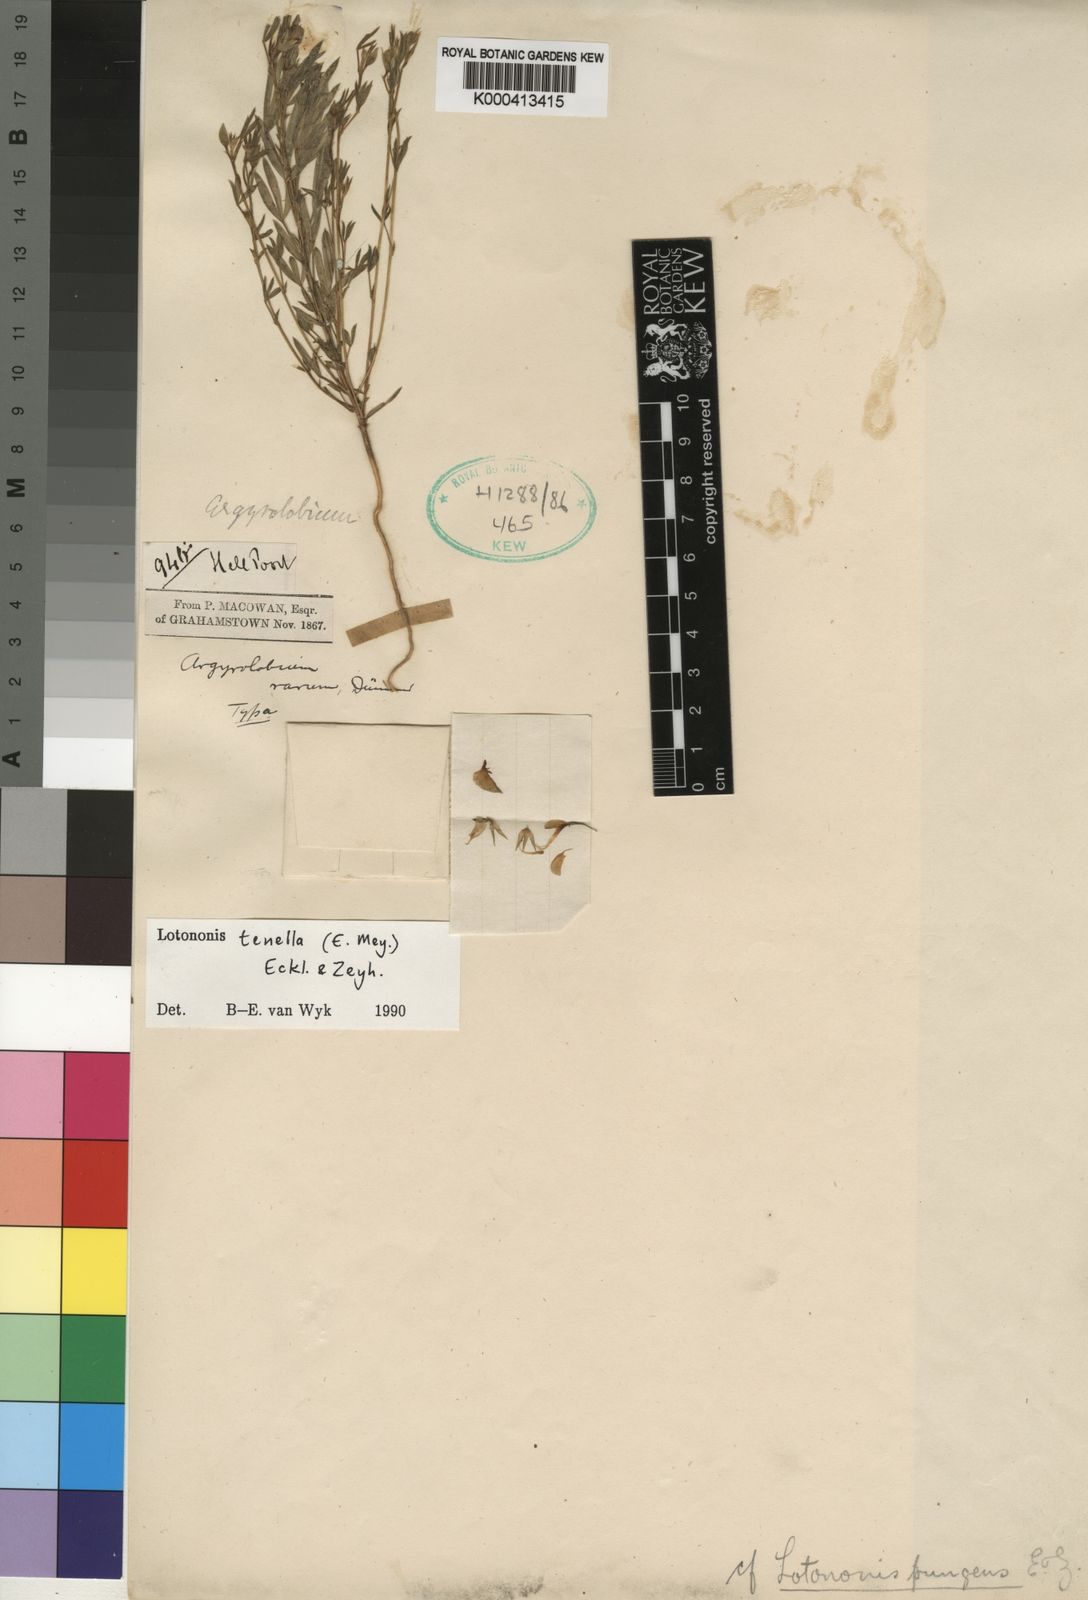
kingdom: Plantae
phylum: Tracheophyta
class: Magnoliopsida
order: Fabales
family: Fabaceae
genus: Lotononis
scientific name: Lotononis tenella
